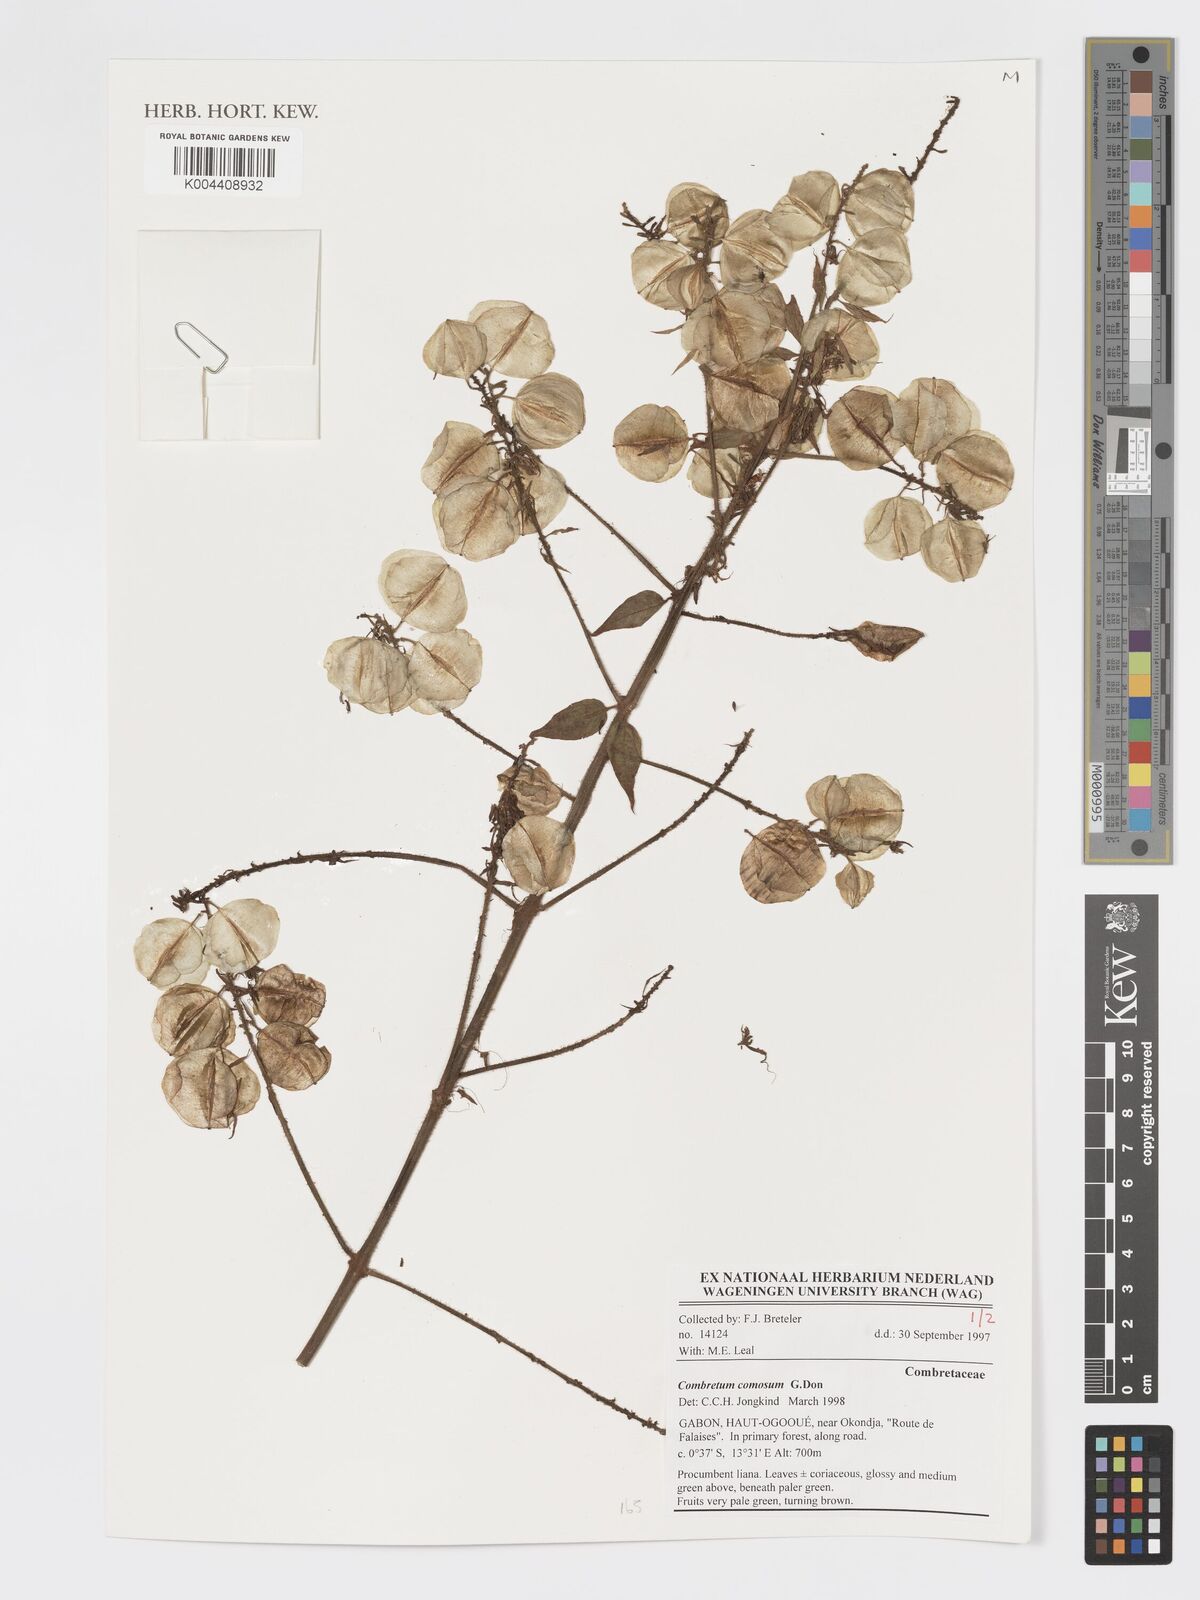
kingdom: Plantae
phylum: Tracheophyta
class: Magnoliopsida
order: Myrtales
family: Combretaceae
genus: Combretum
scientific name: Combretum comosum
